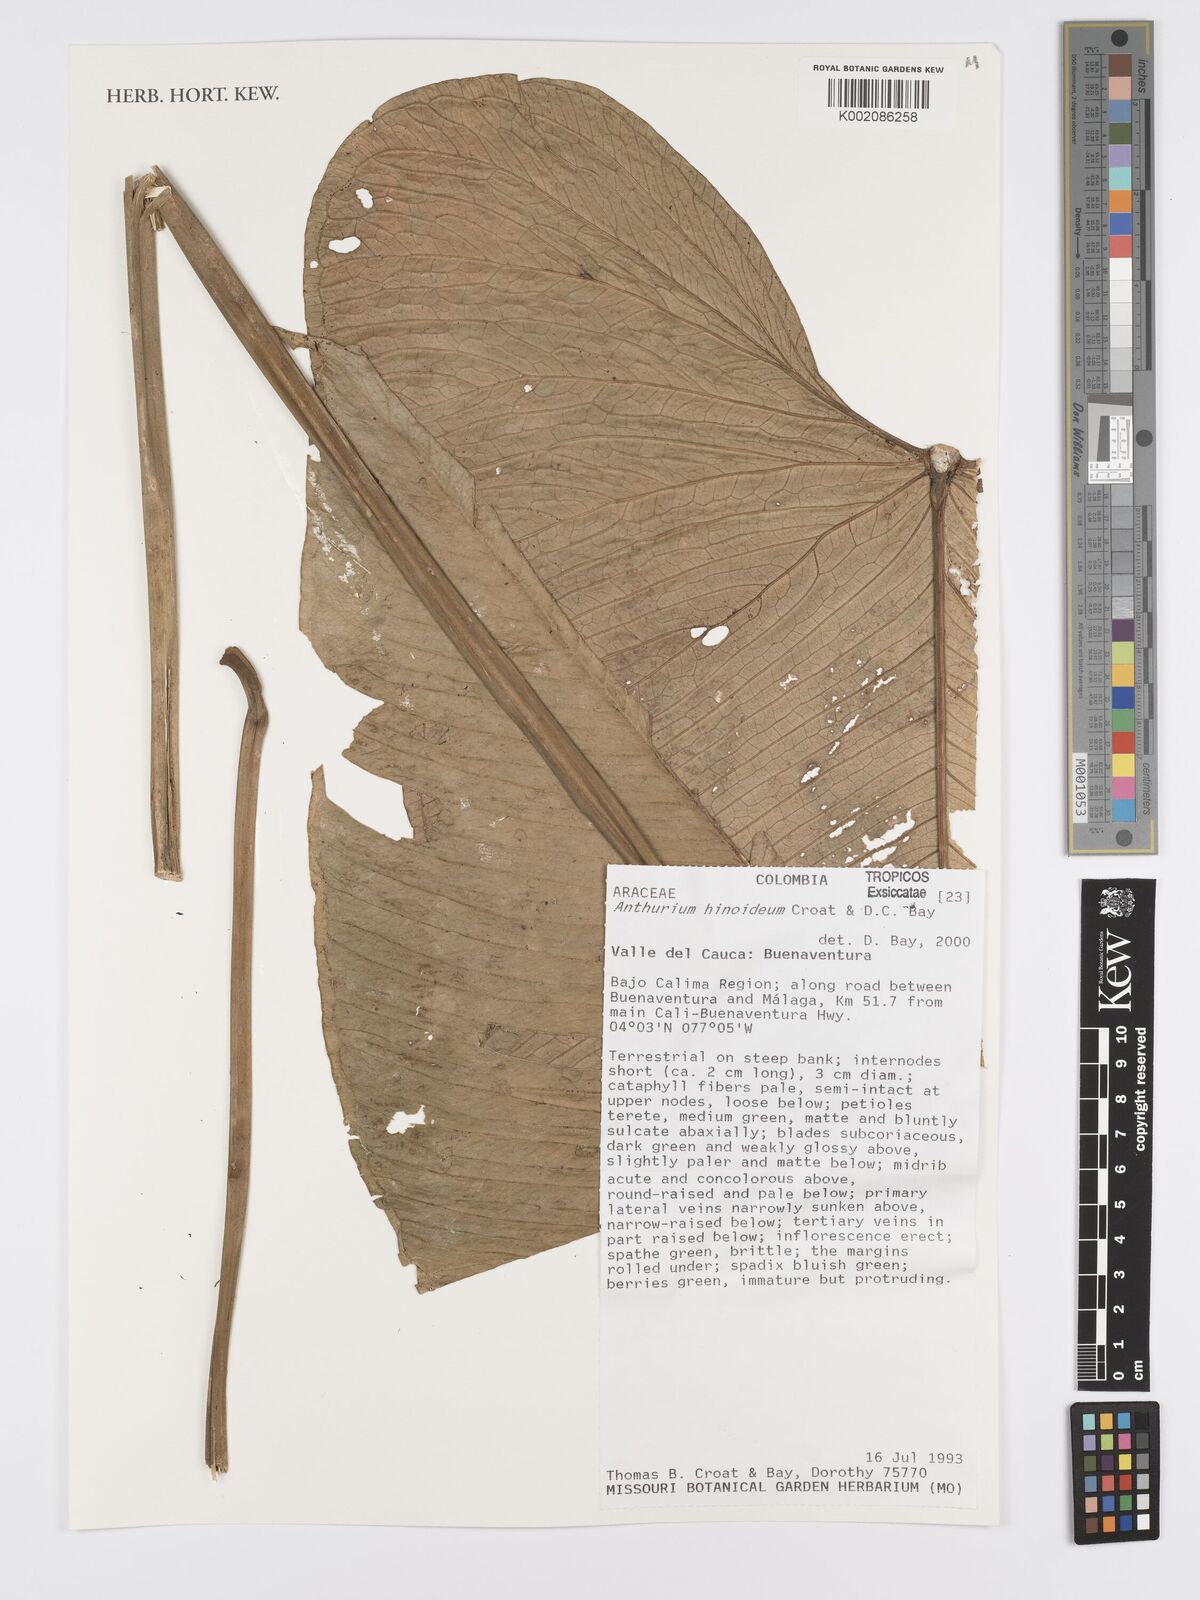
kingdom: Plantae
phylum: Tracheophyta
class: Liliopsida
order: Alismatales
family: Araceae
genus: Anthurium
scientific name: Anthurium hinoideum
